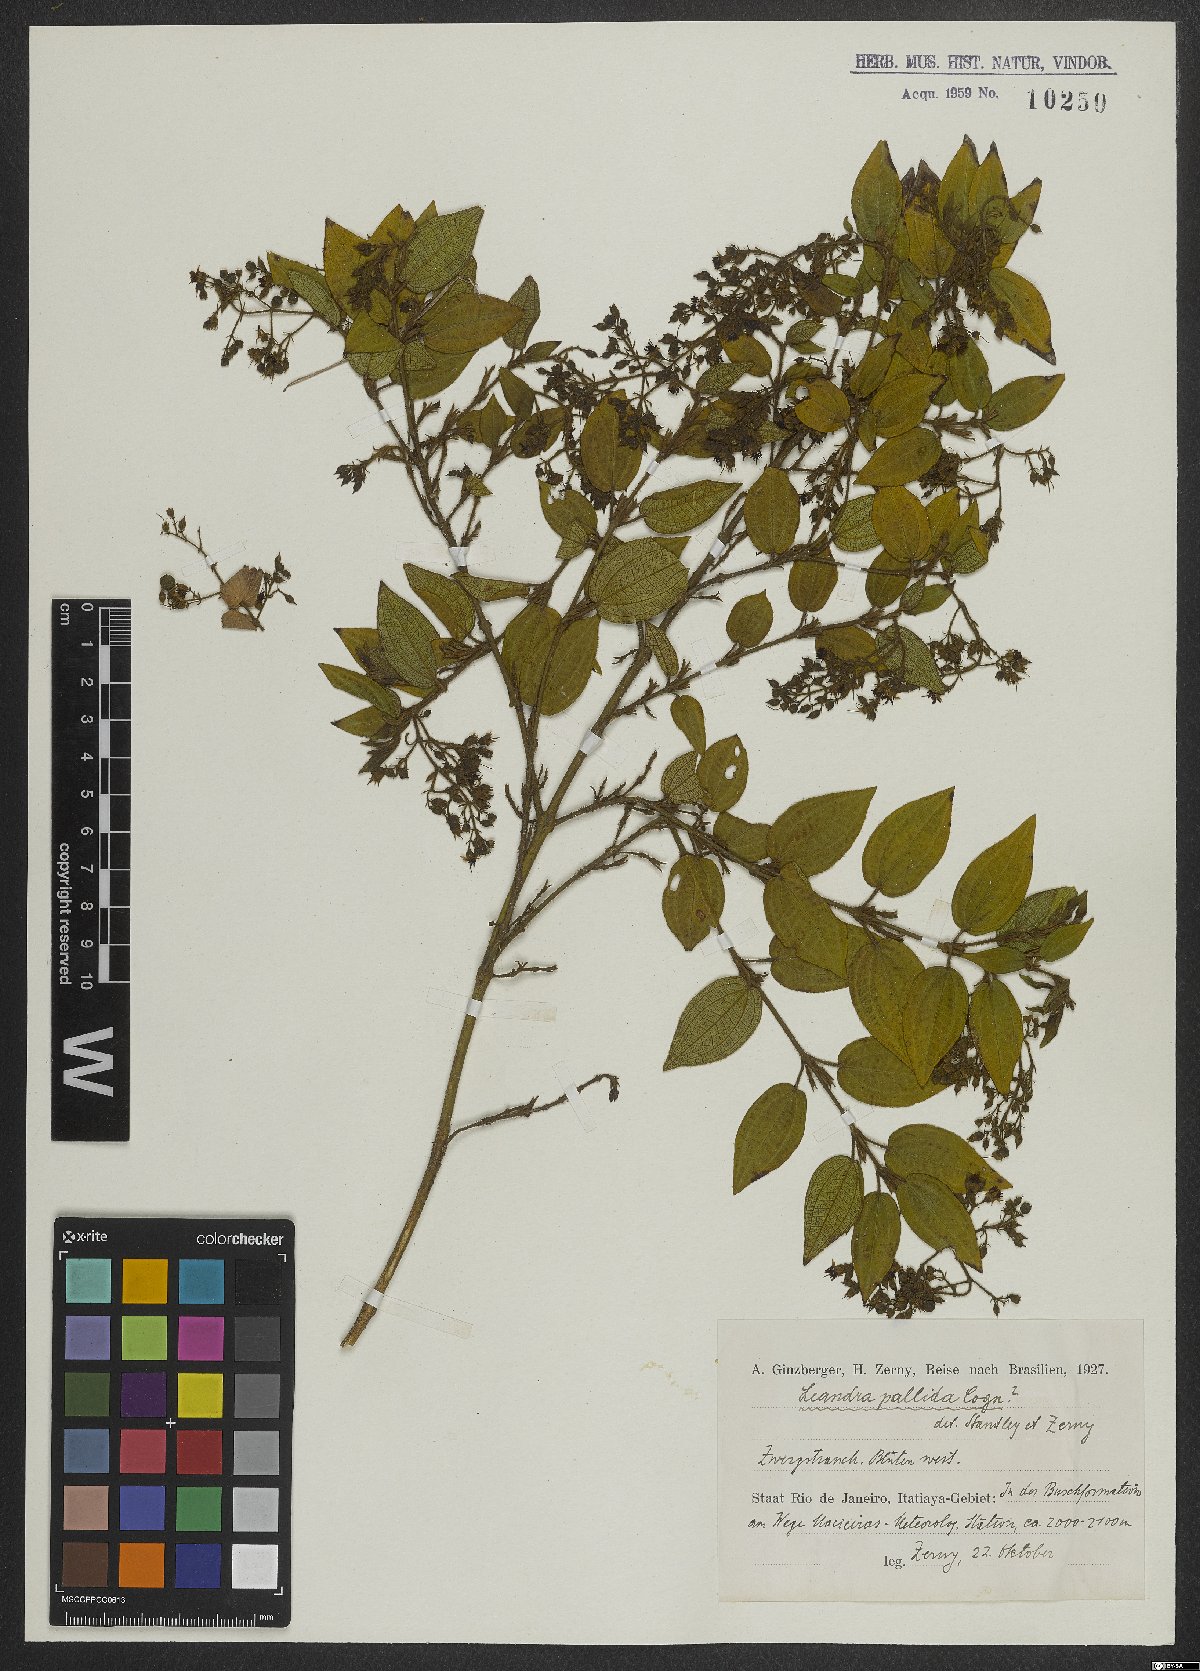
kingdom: Plantae
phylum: Tracheophyta
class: Magnoliopsida
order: Myrtales
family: Melastomataceae
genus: Miconia
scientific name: Miconia leapallida
